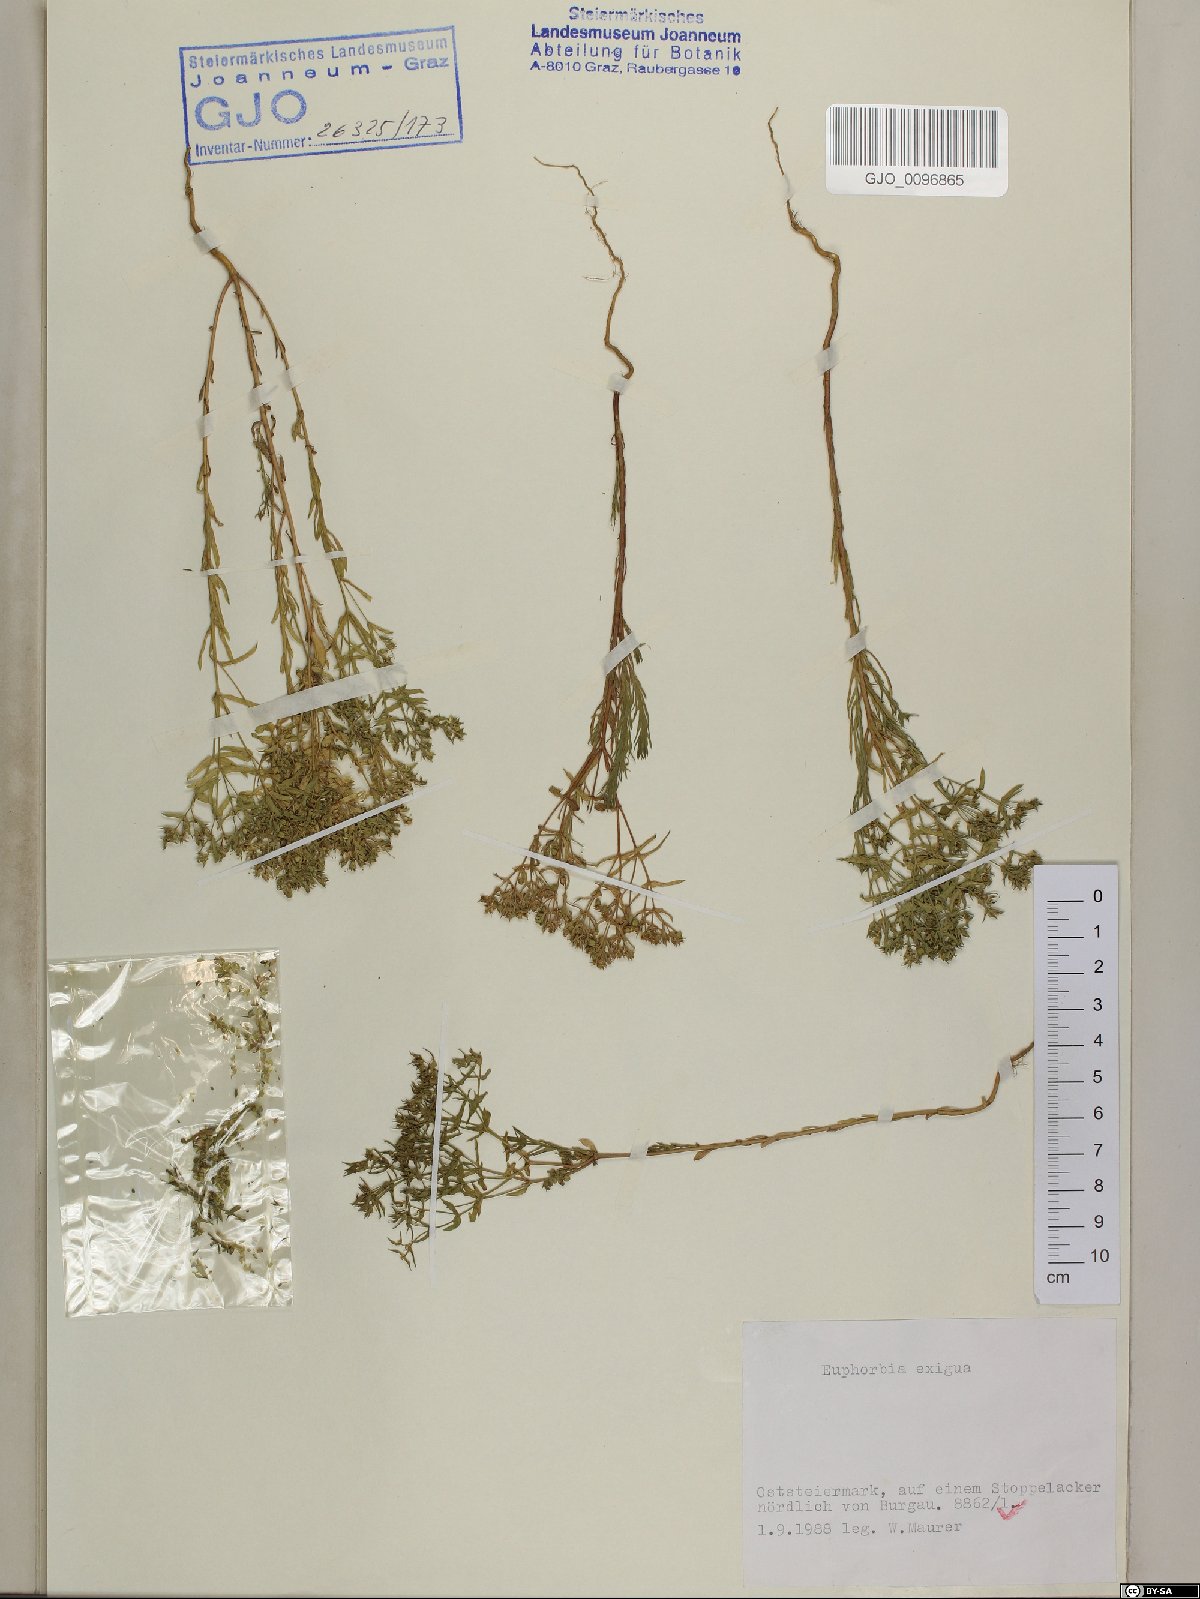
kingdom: Plantae
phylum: Tracheophyta
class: Magnoliopsida
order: Malpighiales
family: Euphorbiaceae
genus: Euphorbia
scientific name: Euphorbia exigua
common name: Dwarf spurge
